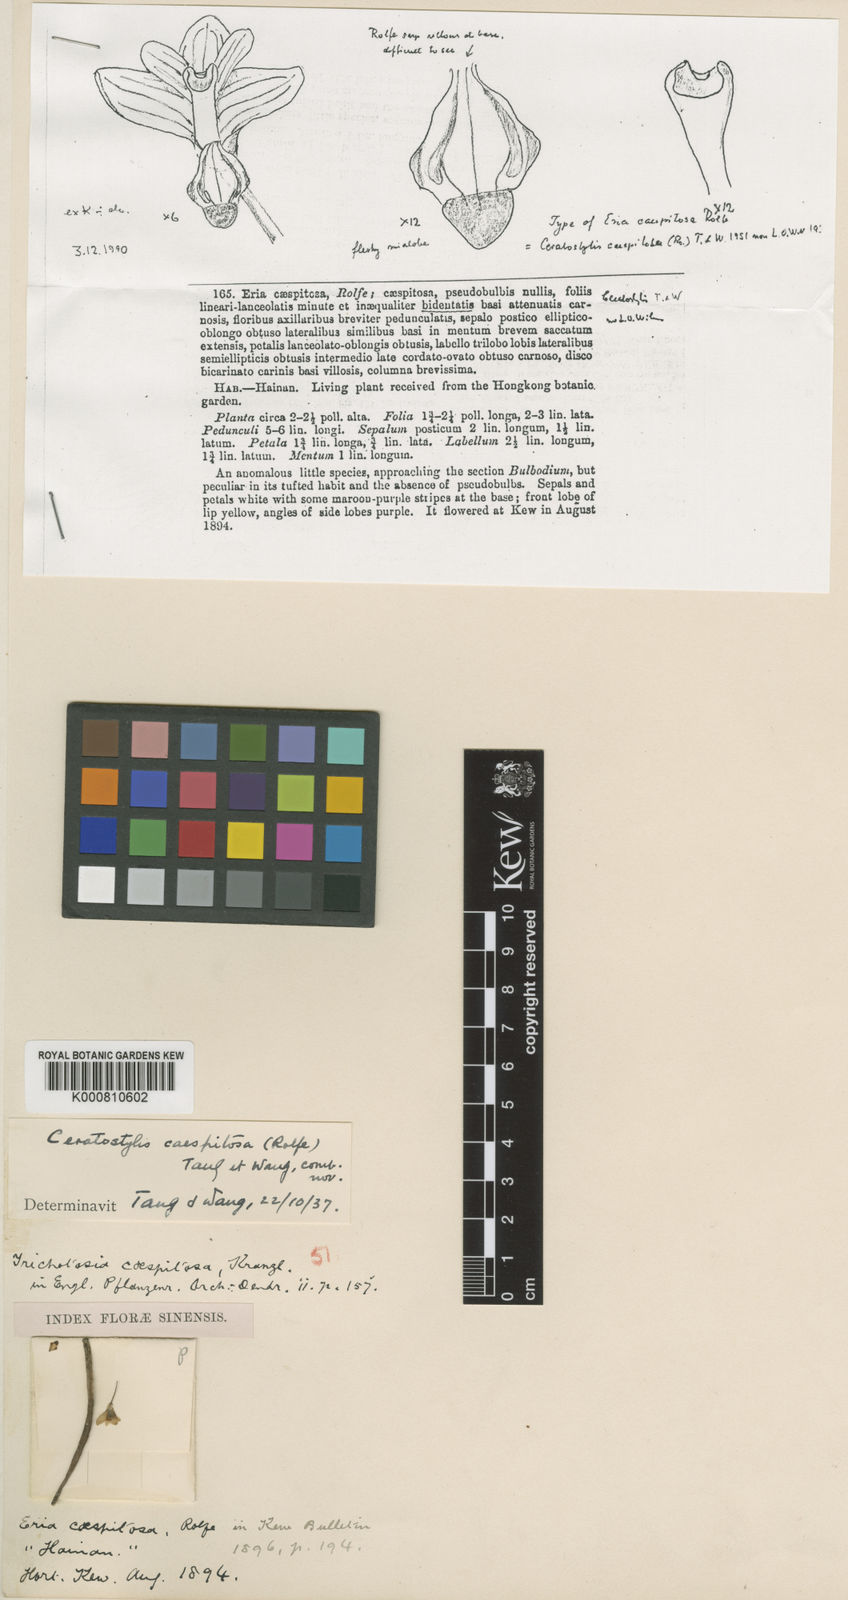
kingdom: Plantae
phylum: Tracheophyta
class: Liliopsida
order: Asparagales
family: Orchidaceae
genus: Ceratostylis
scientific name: Ceratostylis hainanensis
